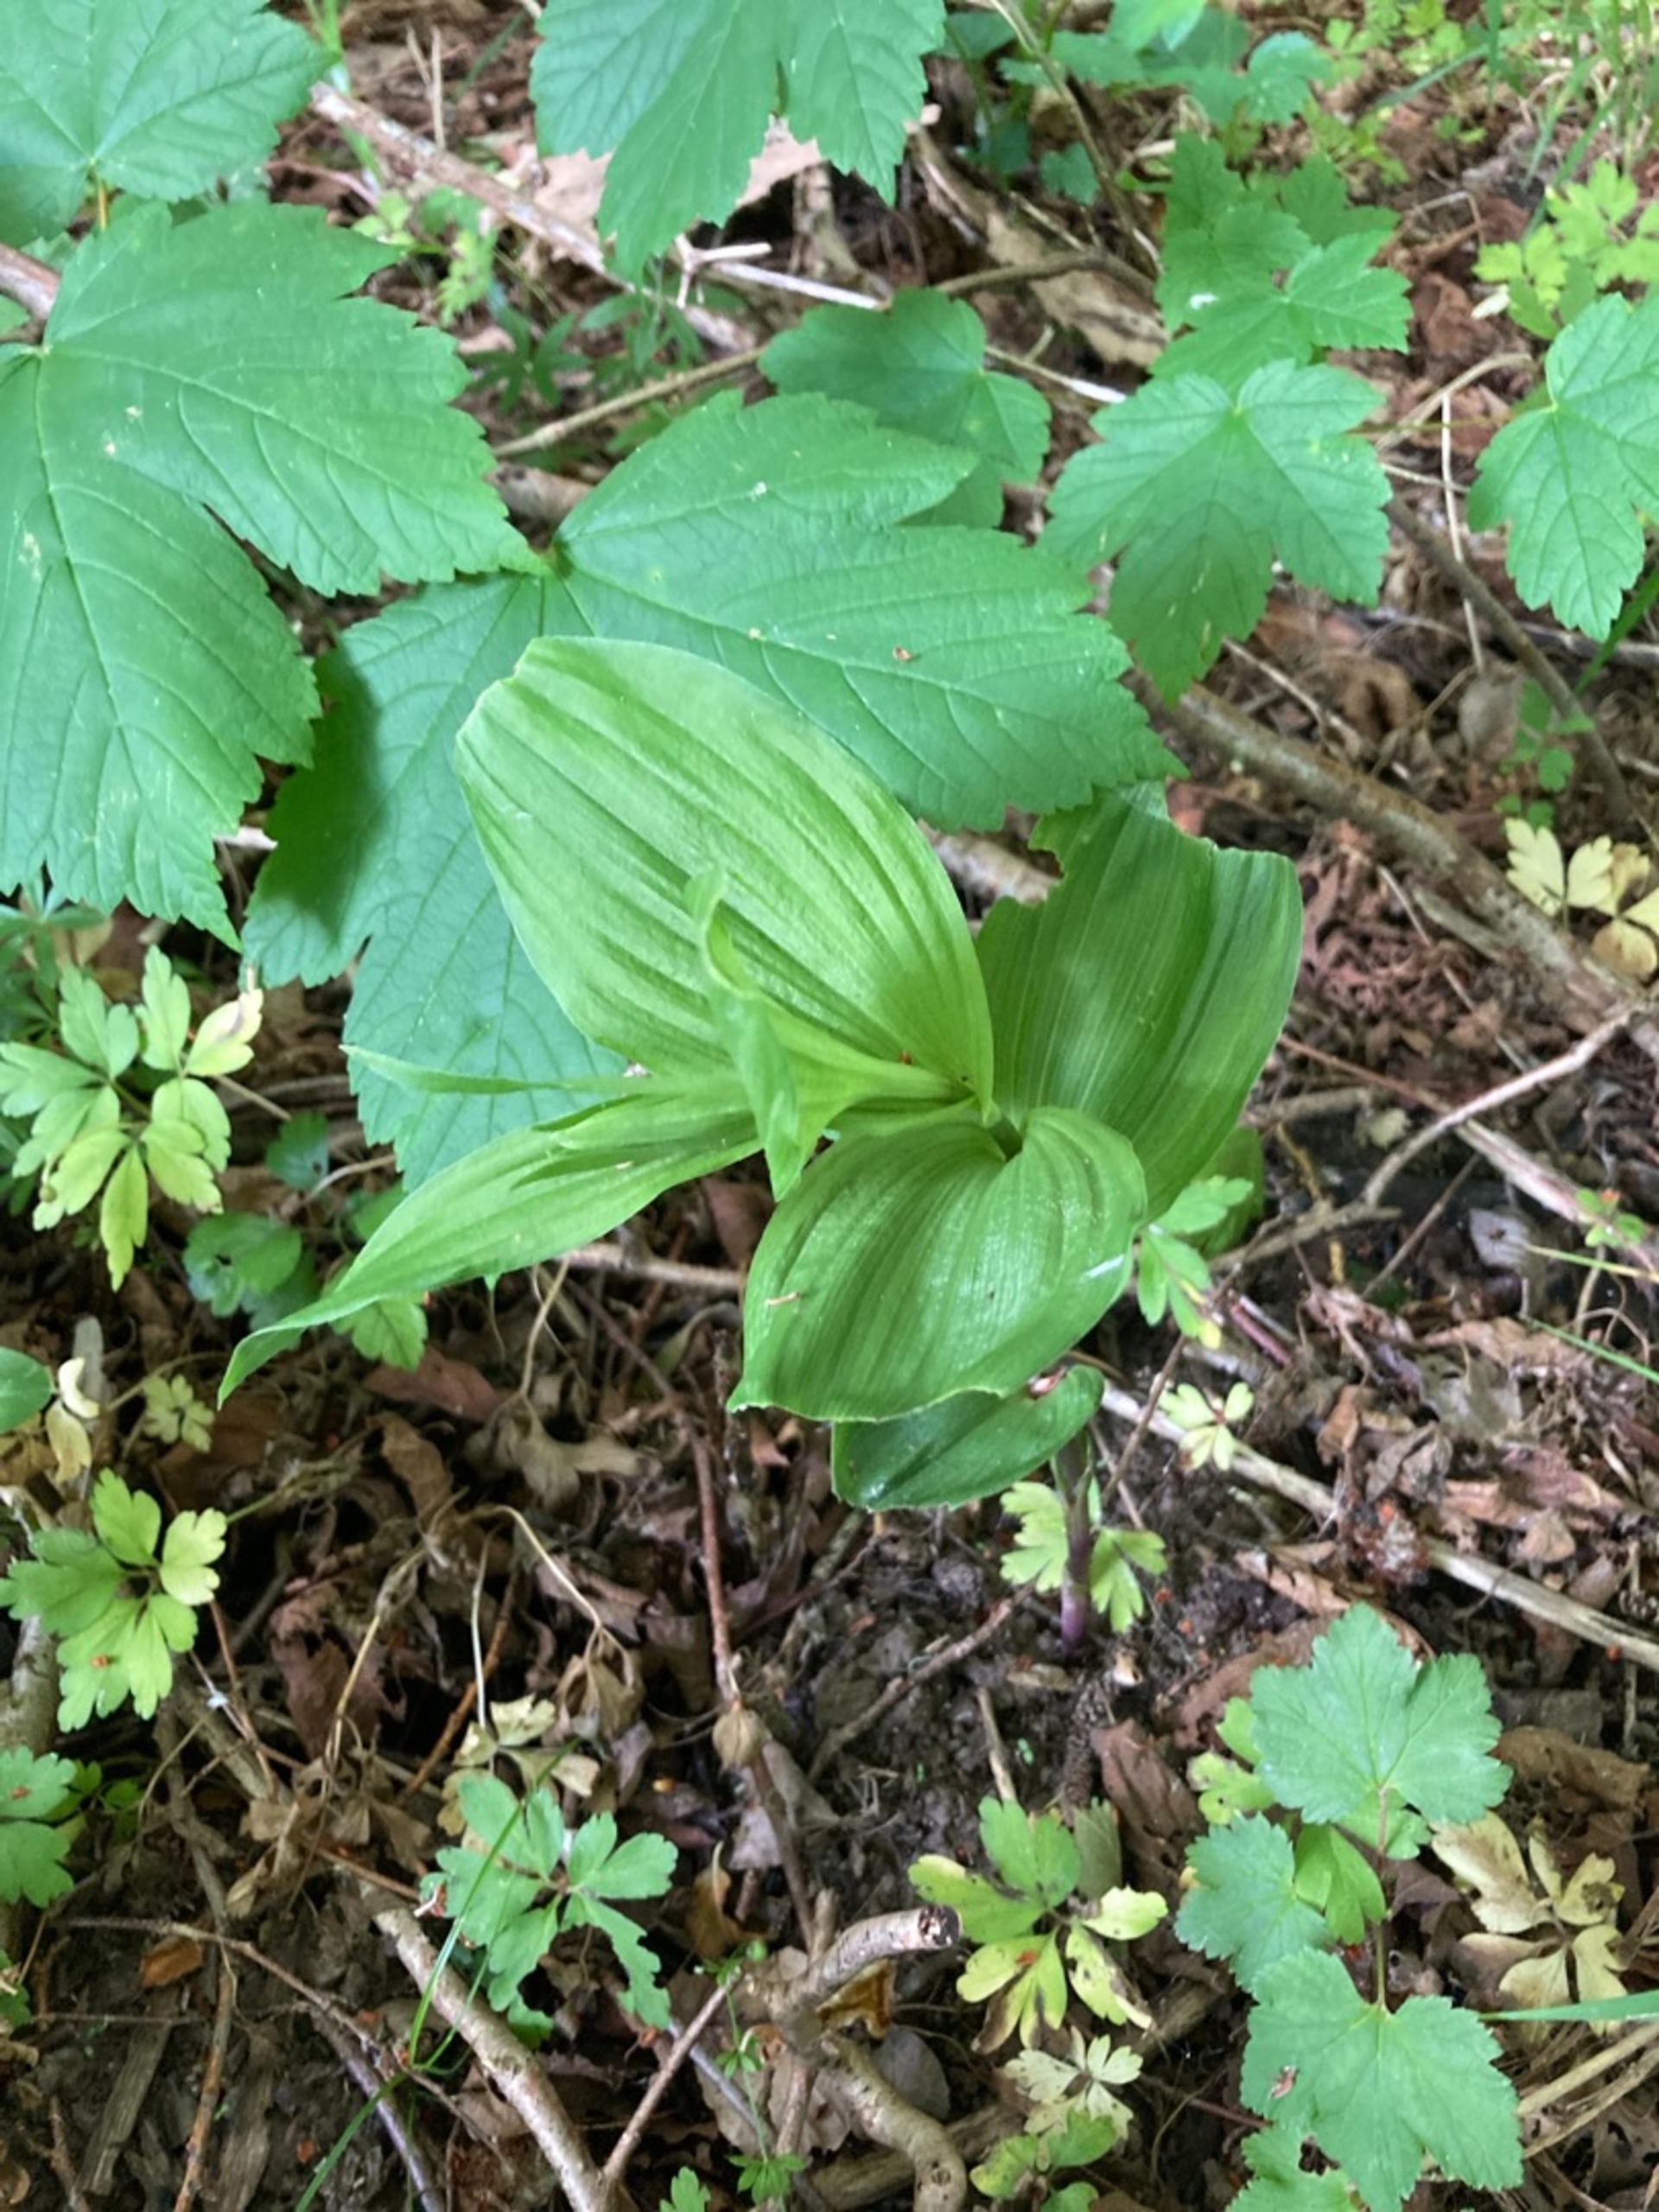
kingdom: Plantae
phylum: Tracheophyta
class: Liliopsida
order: Asparagales
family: Orchidaceae
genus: Epipactis
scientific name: Epipactis helleborine
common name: Skov-hullæbe
